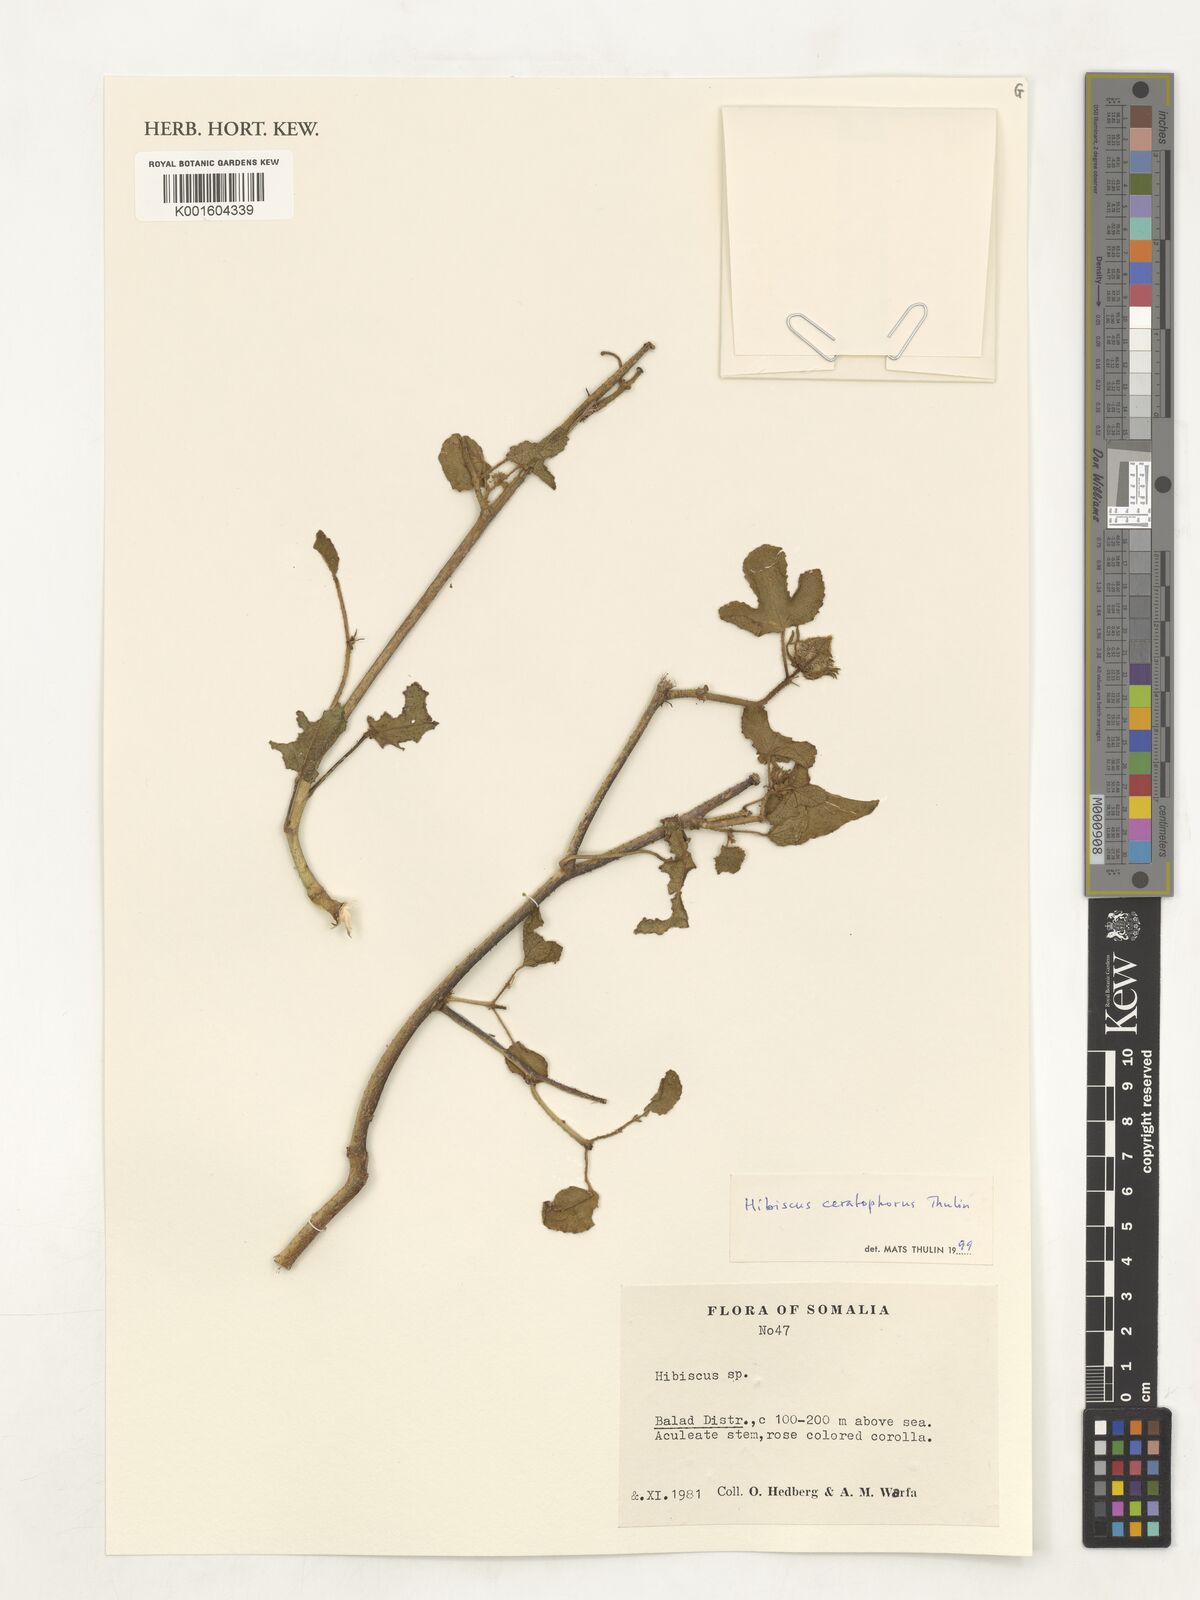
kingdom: Plantae
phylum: Tracheophyta
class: Magnoliopsida
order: Malvales
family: Malvaceae
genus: Hibiscus
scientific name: Hibiscus ceratophorus
